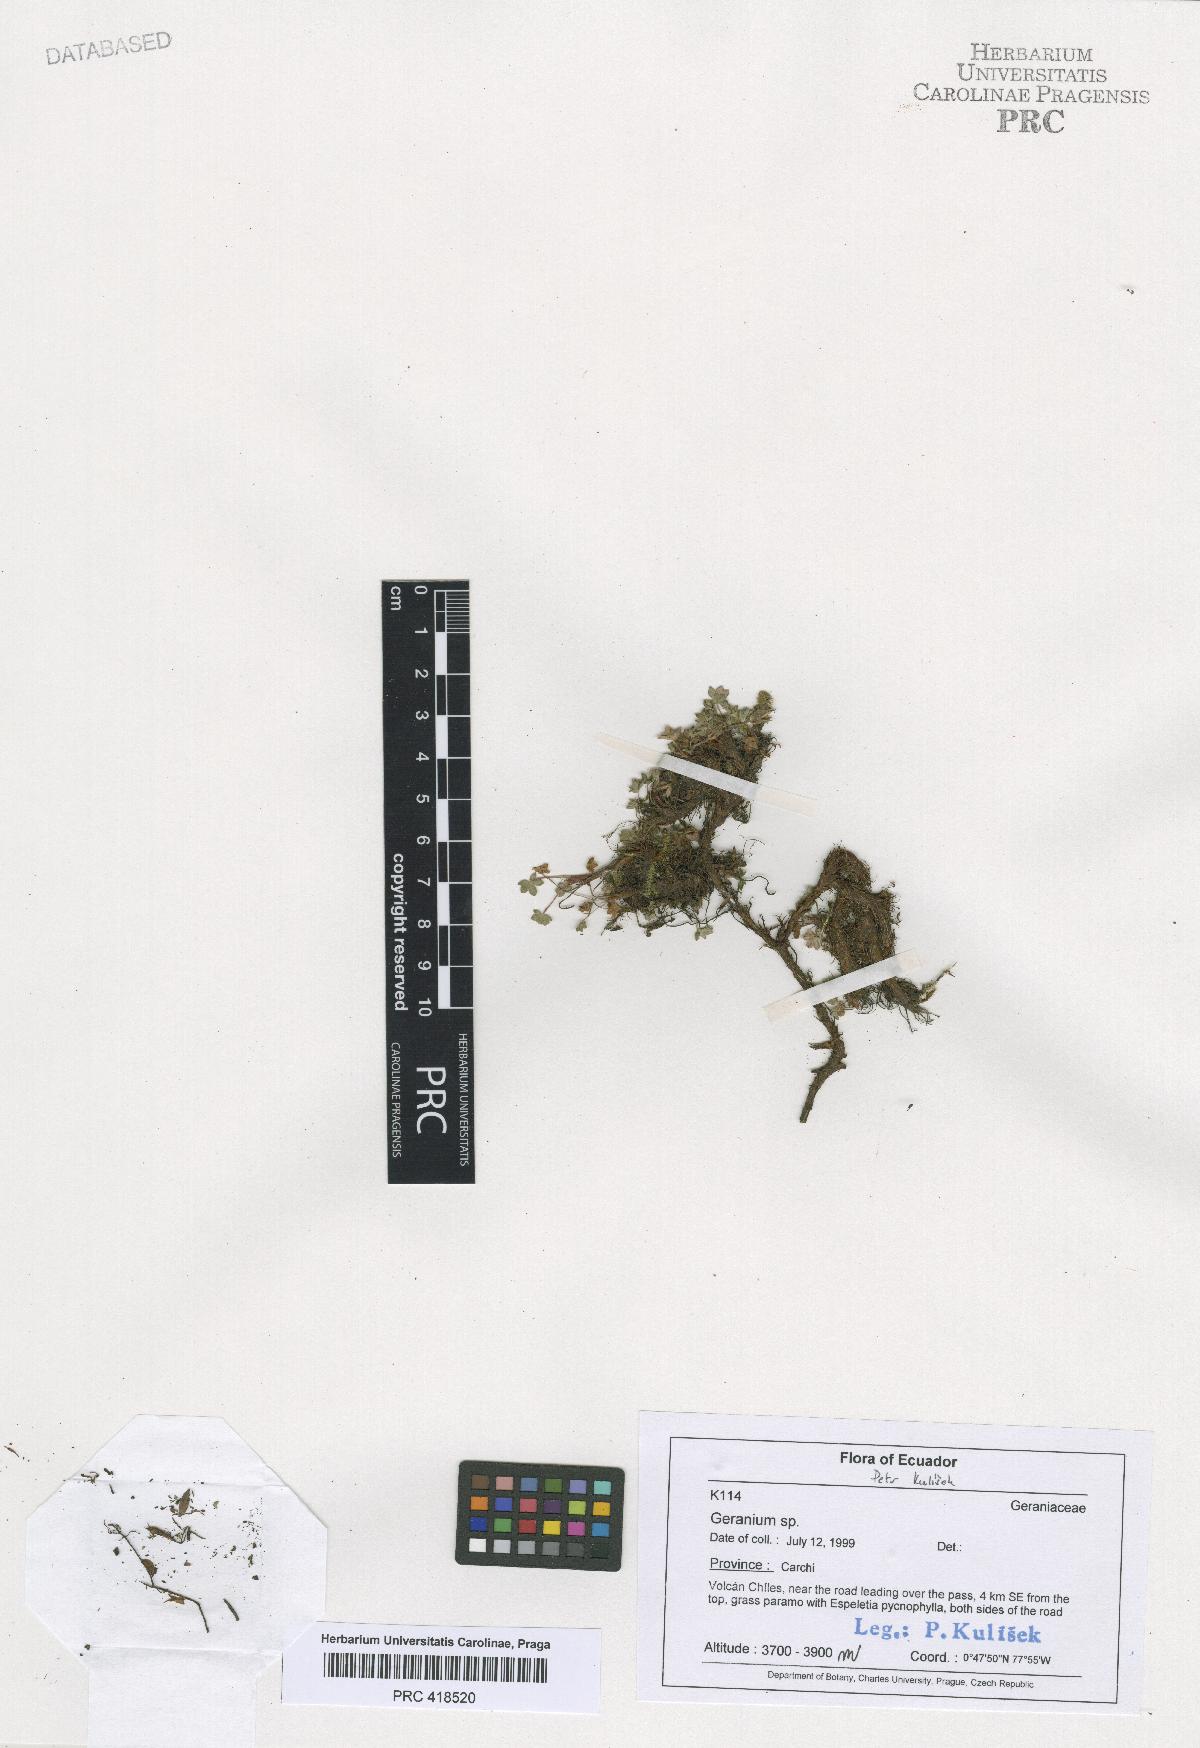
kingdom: Plantae
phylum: Tracheophyta
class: Magnoliopsida
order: Geraniales
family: Geraniaceae
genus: Geranium
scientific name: Geranium sibbaldioides
